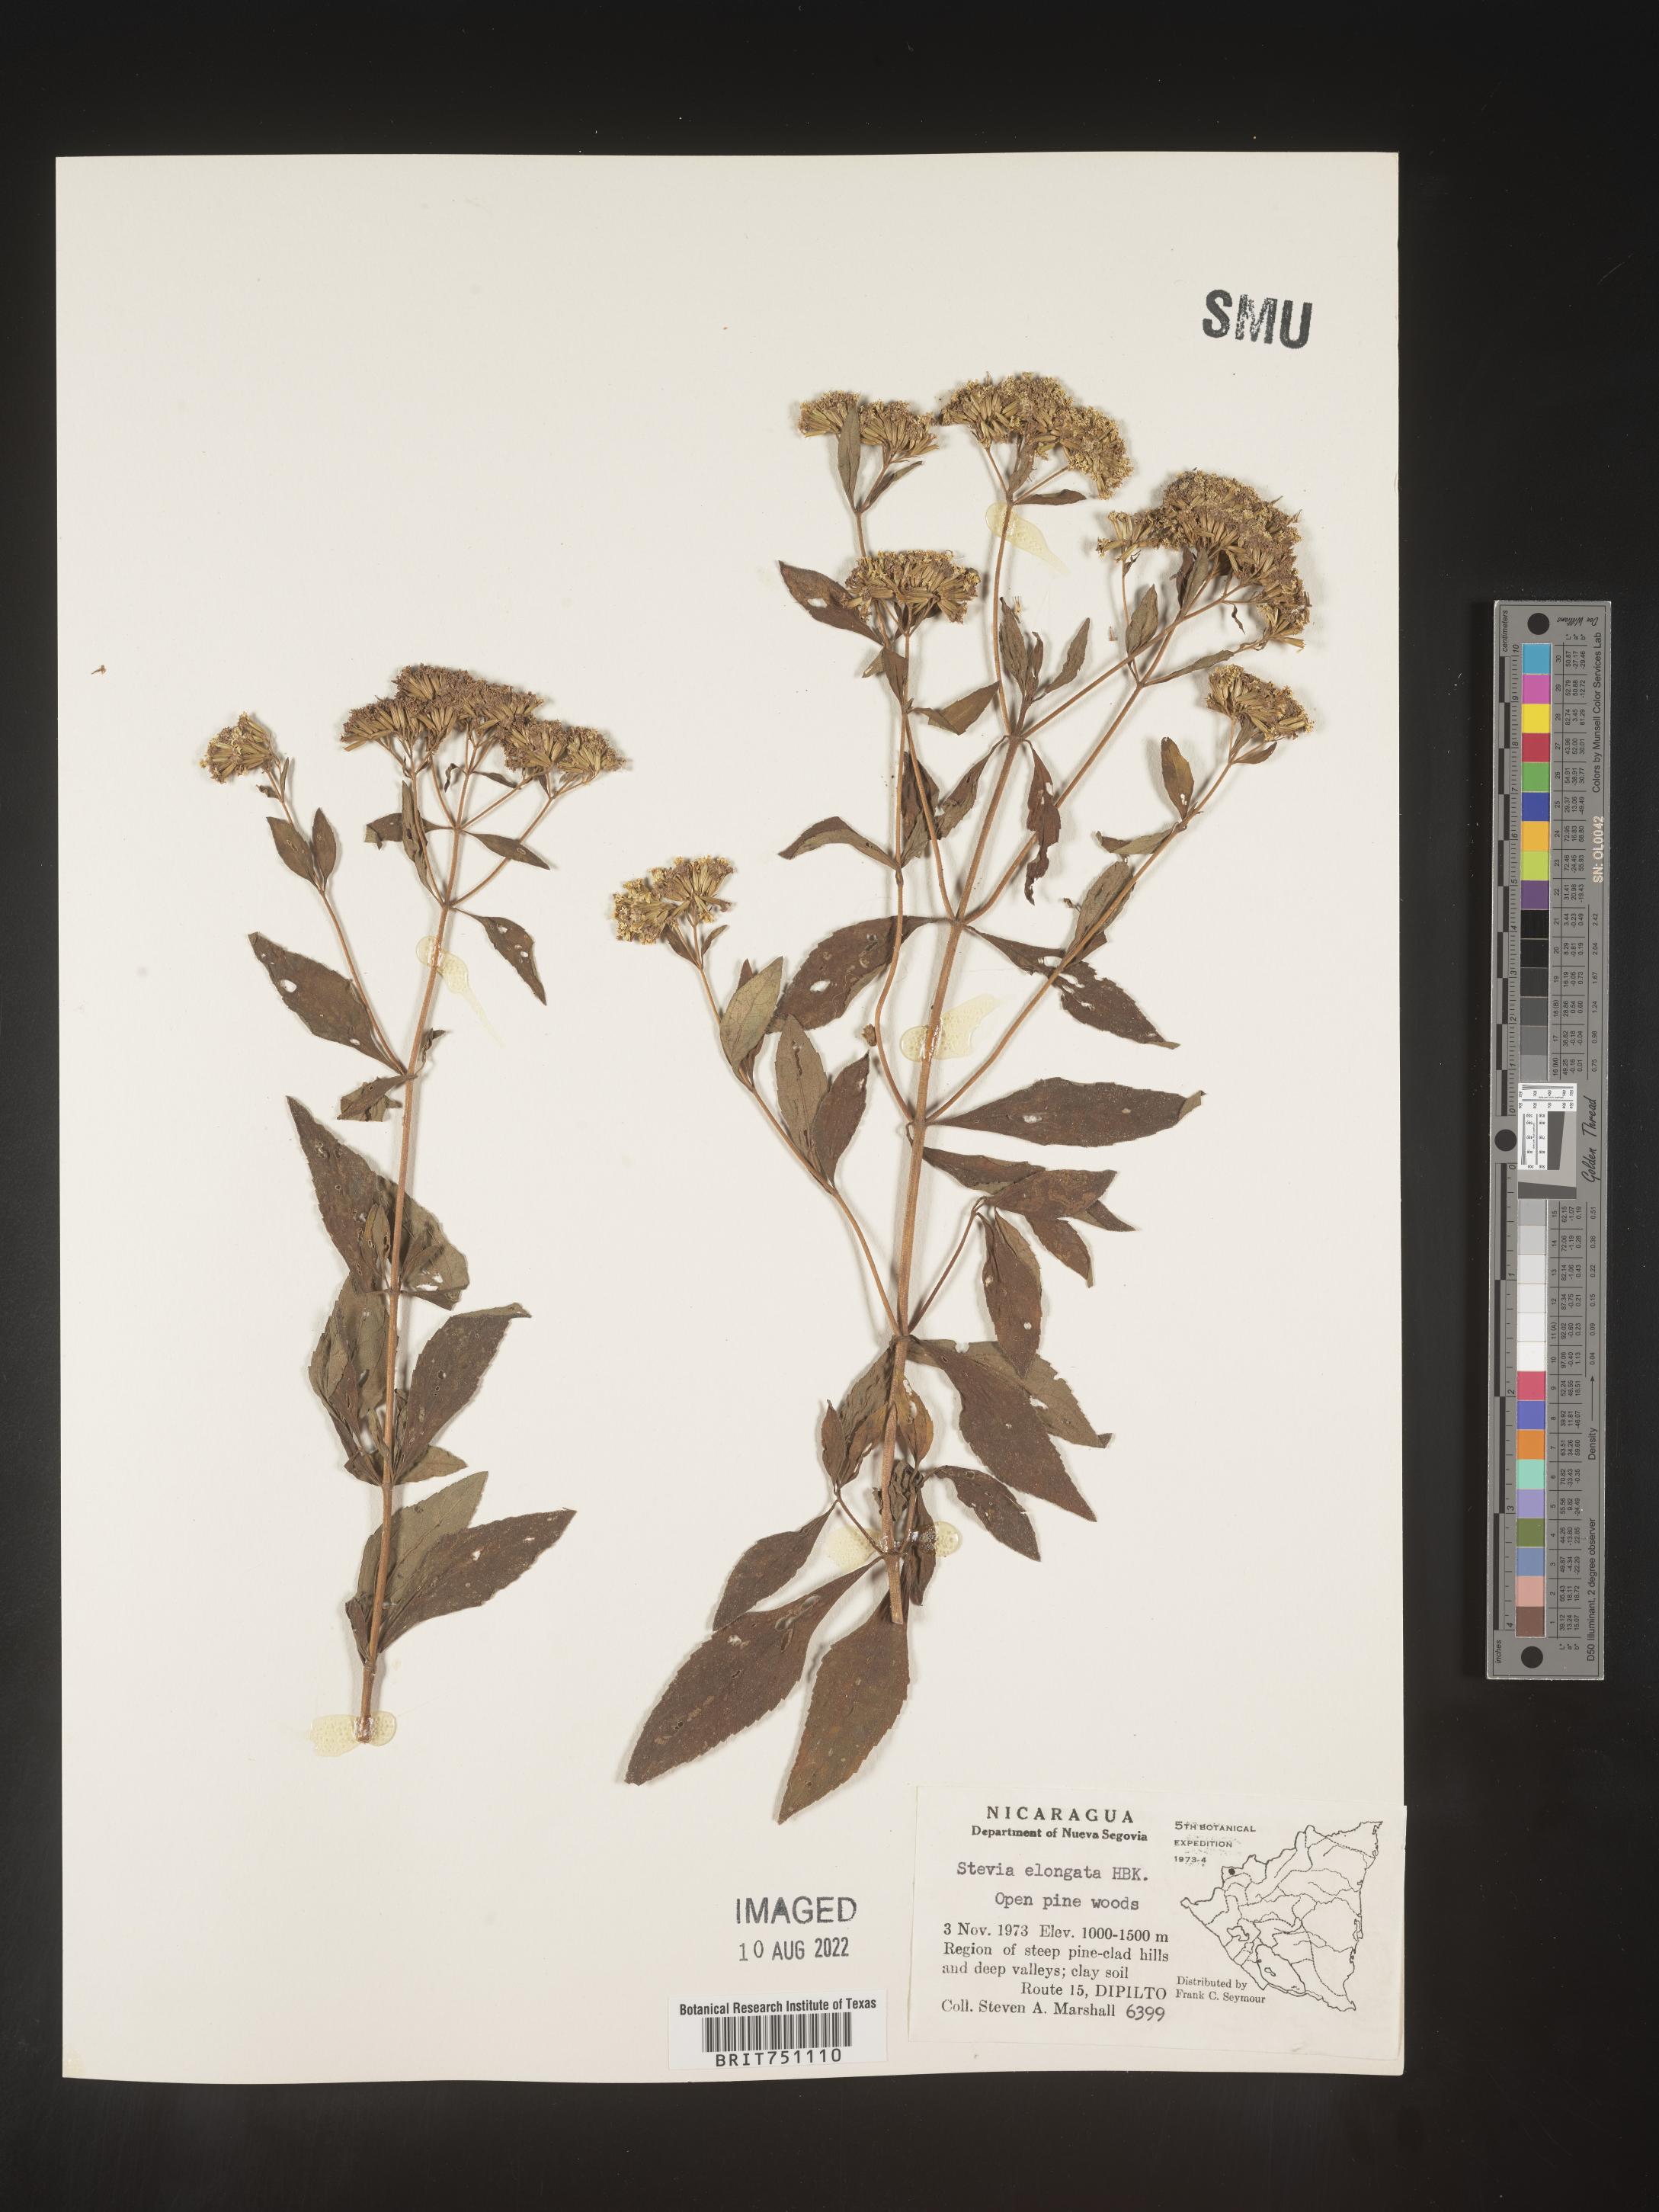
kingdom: Plantae
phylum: Tracheophyta
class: Magnoliopsida
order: Asterales
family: Asteraceae
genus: Stevia
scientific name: Stevia
